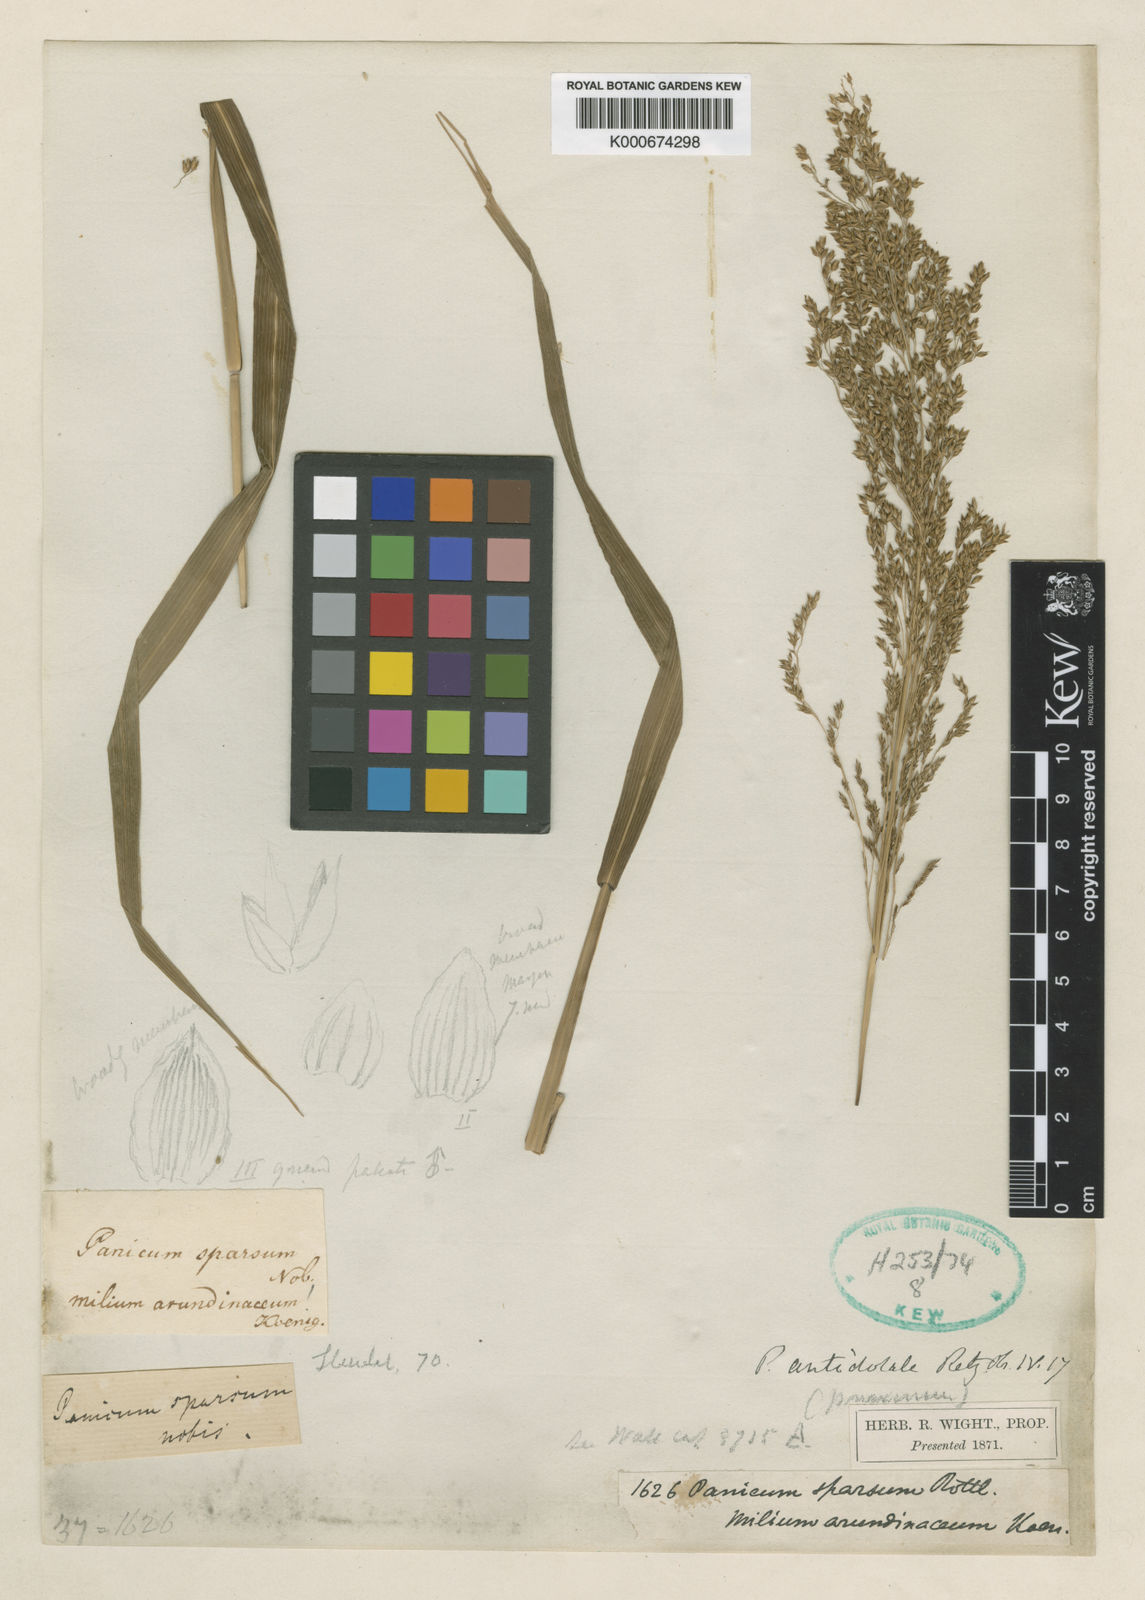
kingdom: Plantae
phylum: Tracheophyta
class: Liliopsida
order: Poales
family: Poaceae
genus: Panicum
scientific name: Panicum antidotale
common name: Blue panicum
